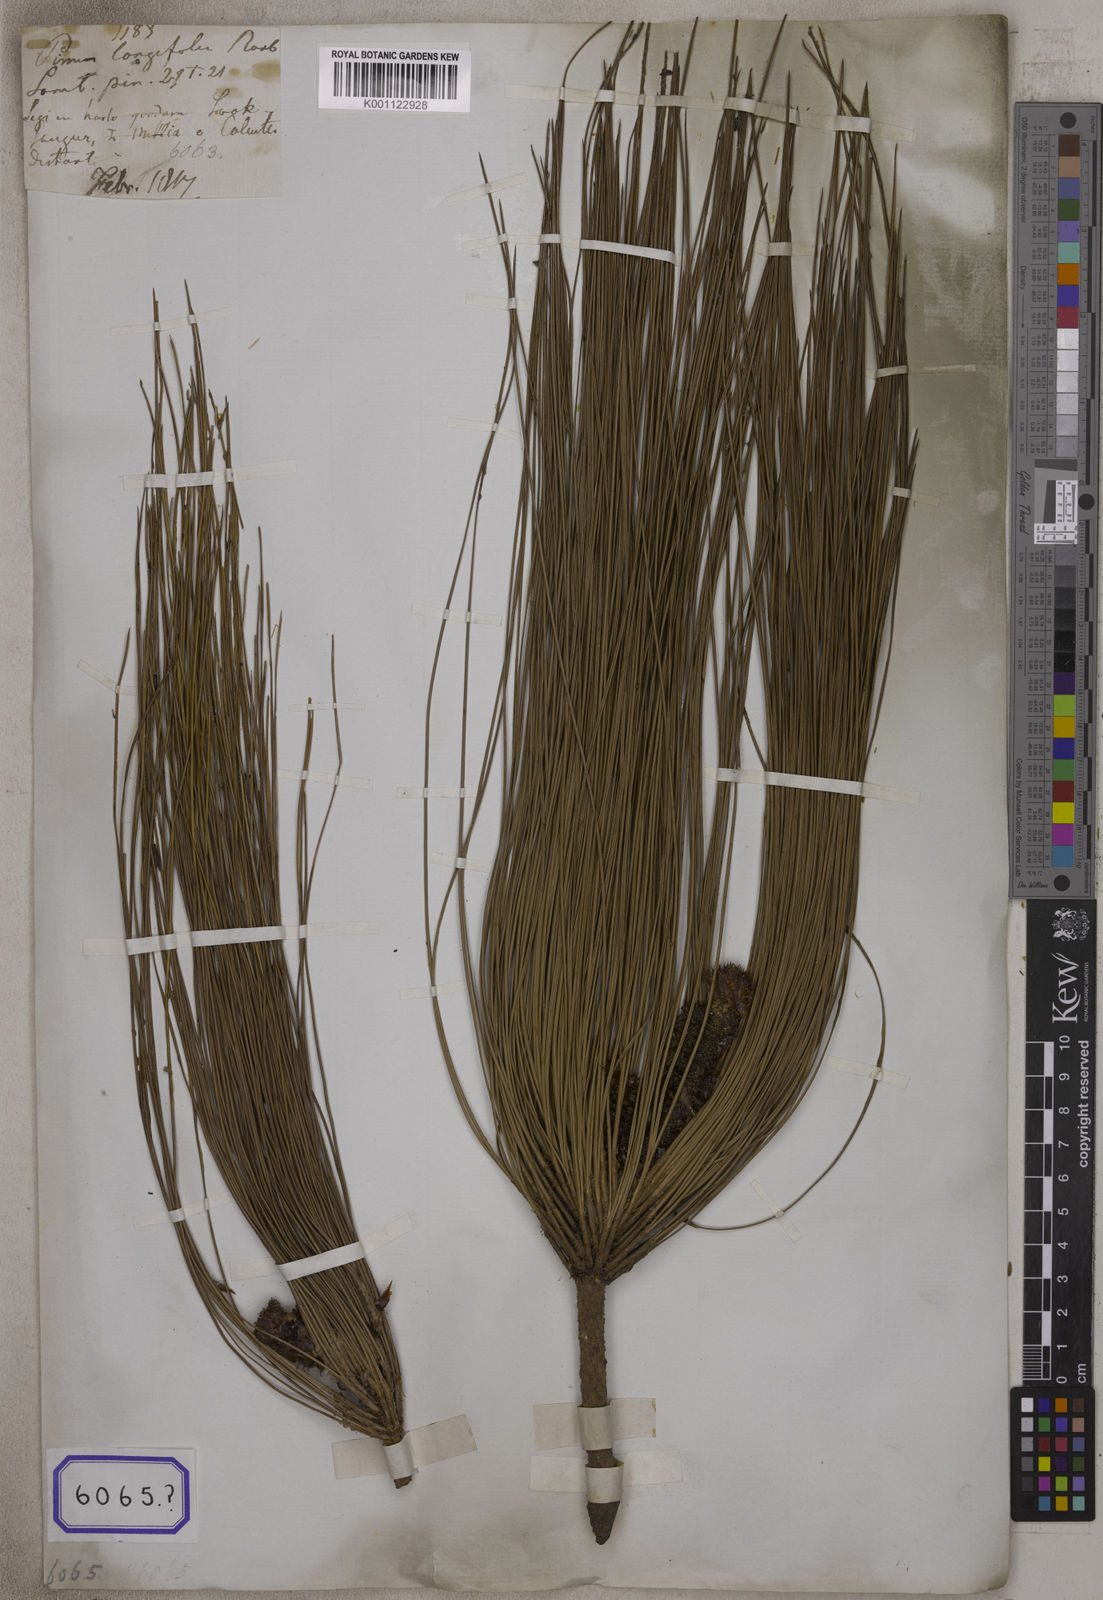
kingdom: Plantae
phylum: Tracheophyta
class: Pinopsida
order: Pinales
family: Pinaceae
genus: Pinus
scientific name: Pinus
